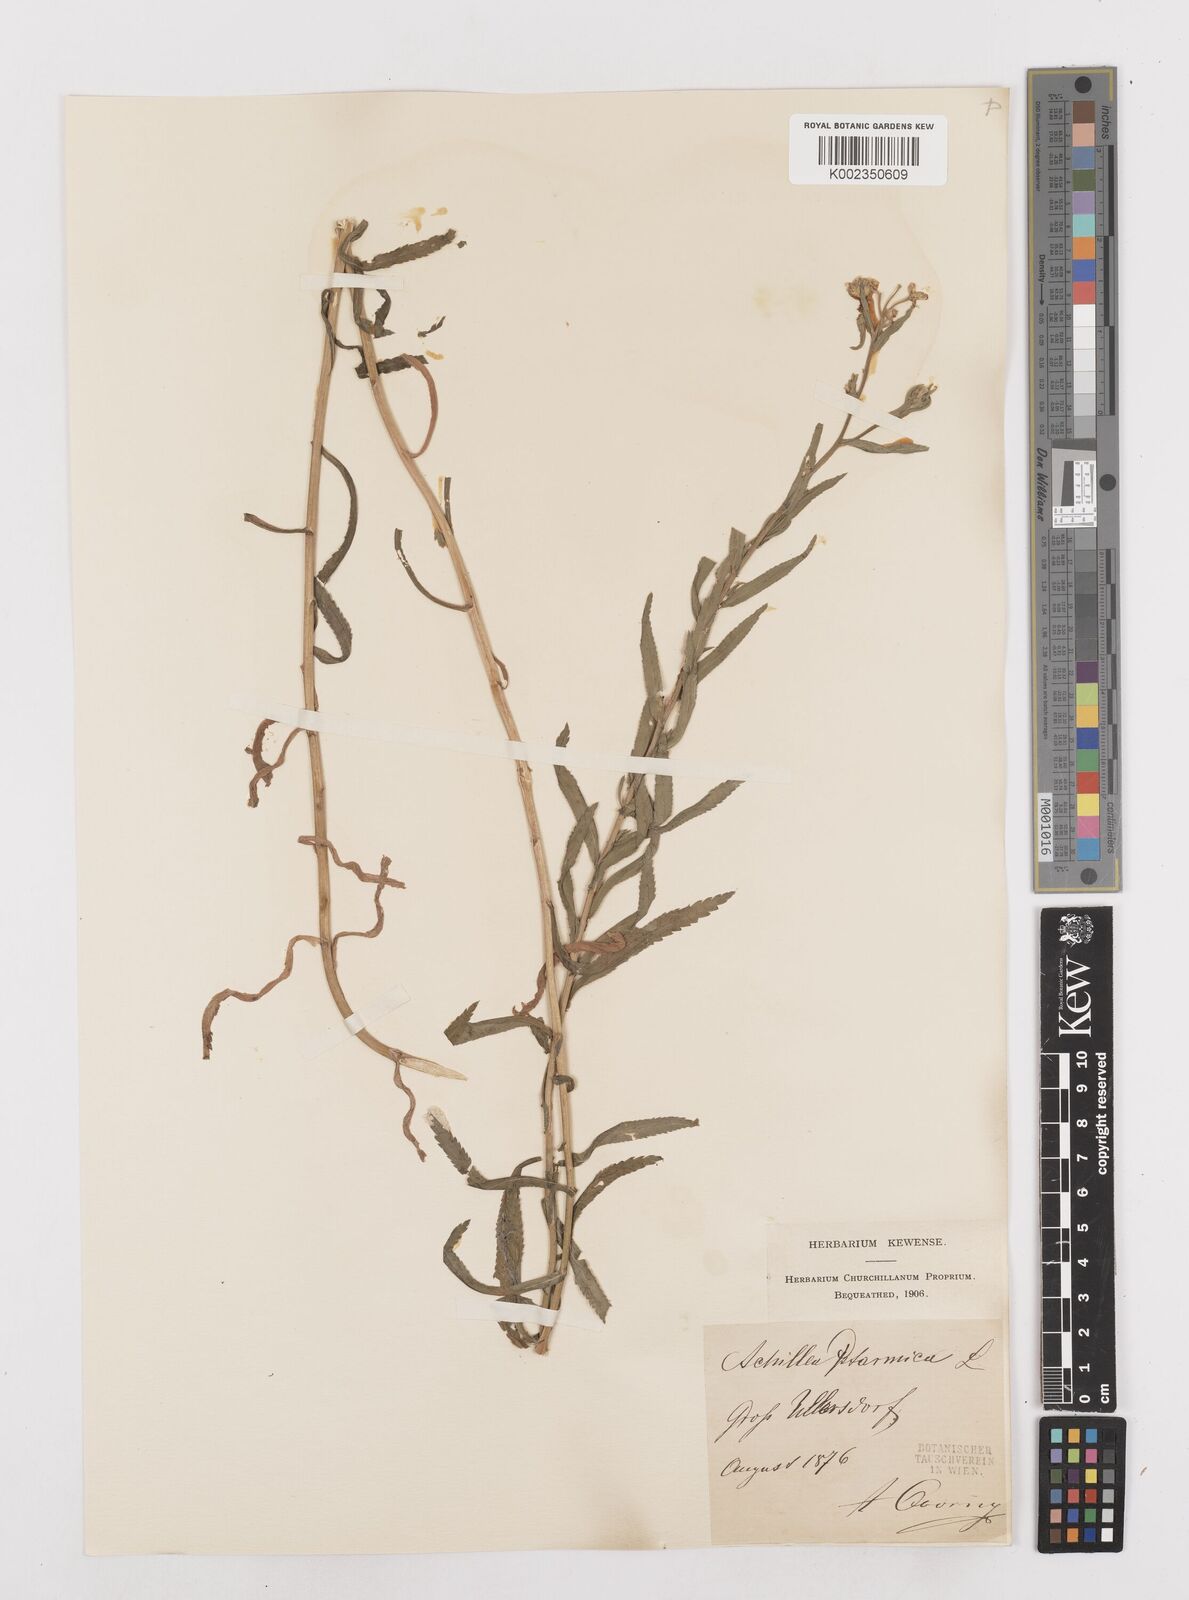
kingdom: Plantae
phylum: Tracheophyta
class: Magnoliopsida
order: Asterales
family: Asteraceae
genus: Achillea
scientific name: Achillea
